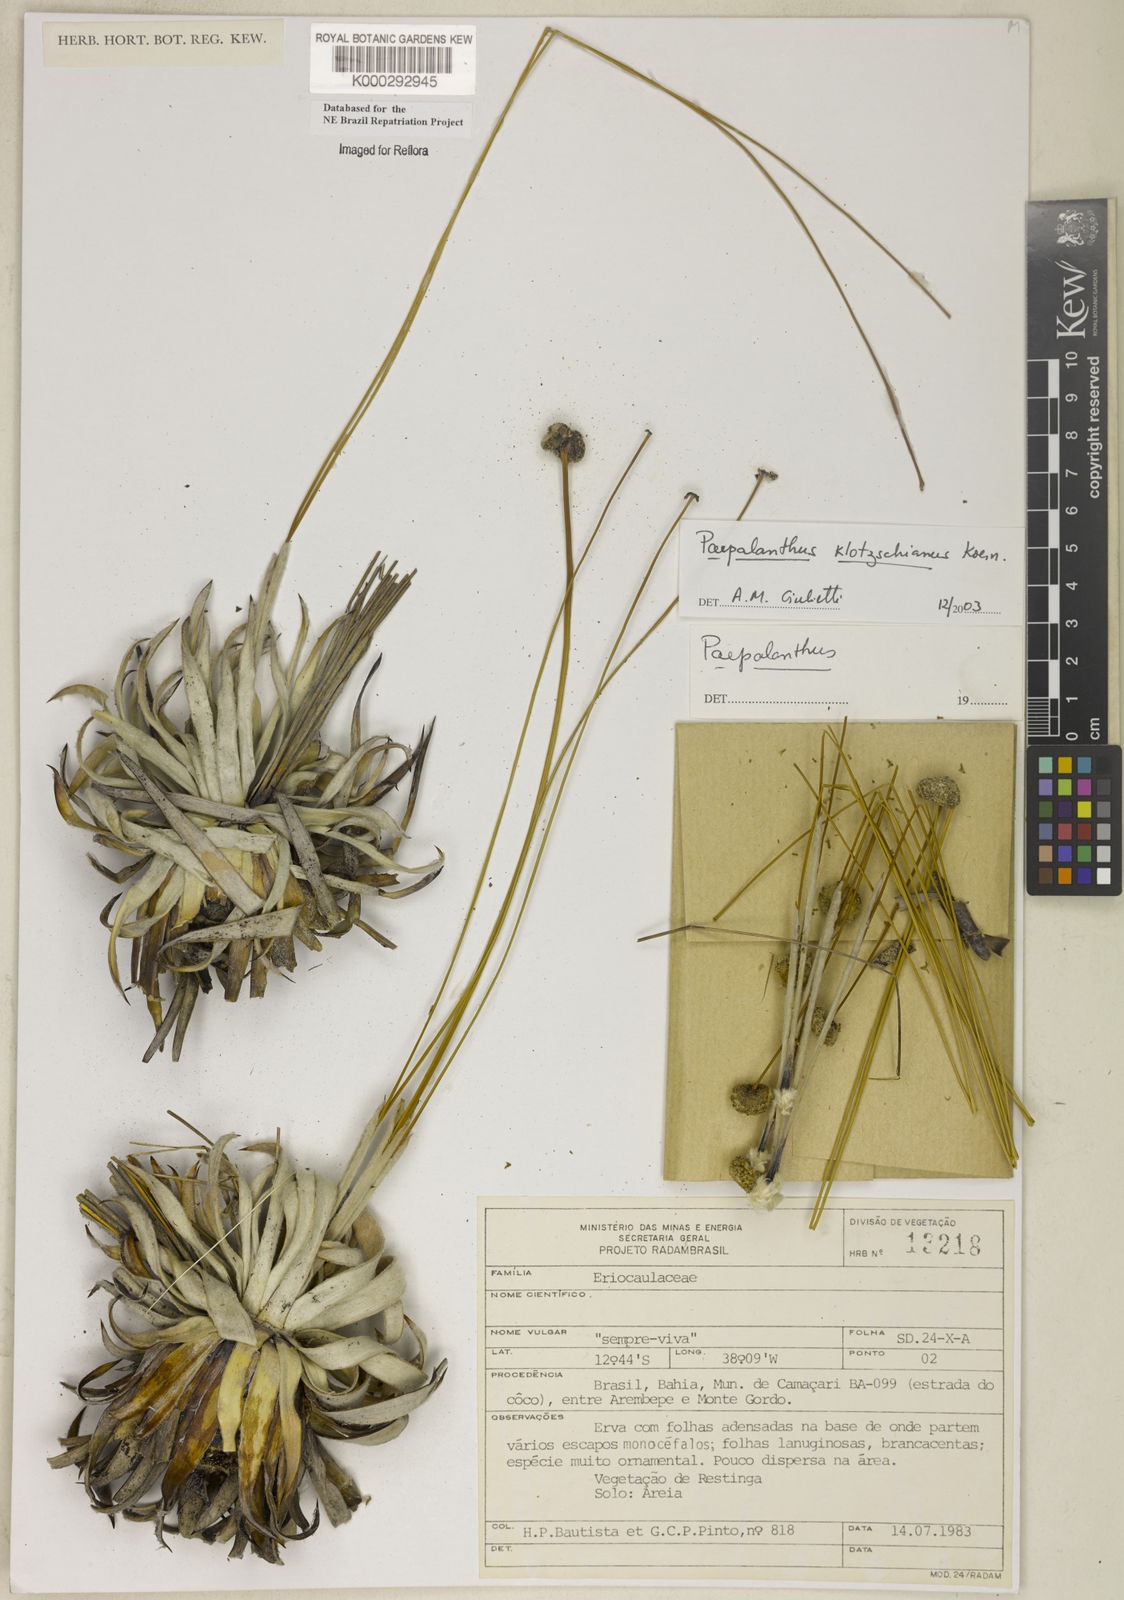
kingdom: Plantae
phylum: Tracheophyta
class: Liliopsida
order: Poales
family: Eriocaulaceae
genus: Paepalanthus
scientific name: Paepalanthus
